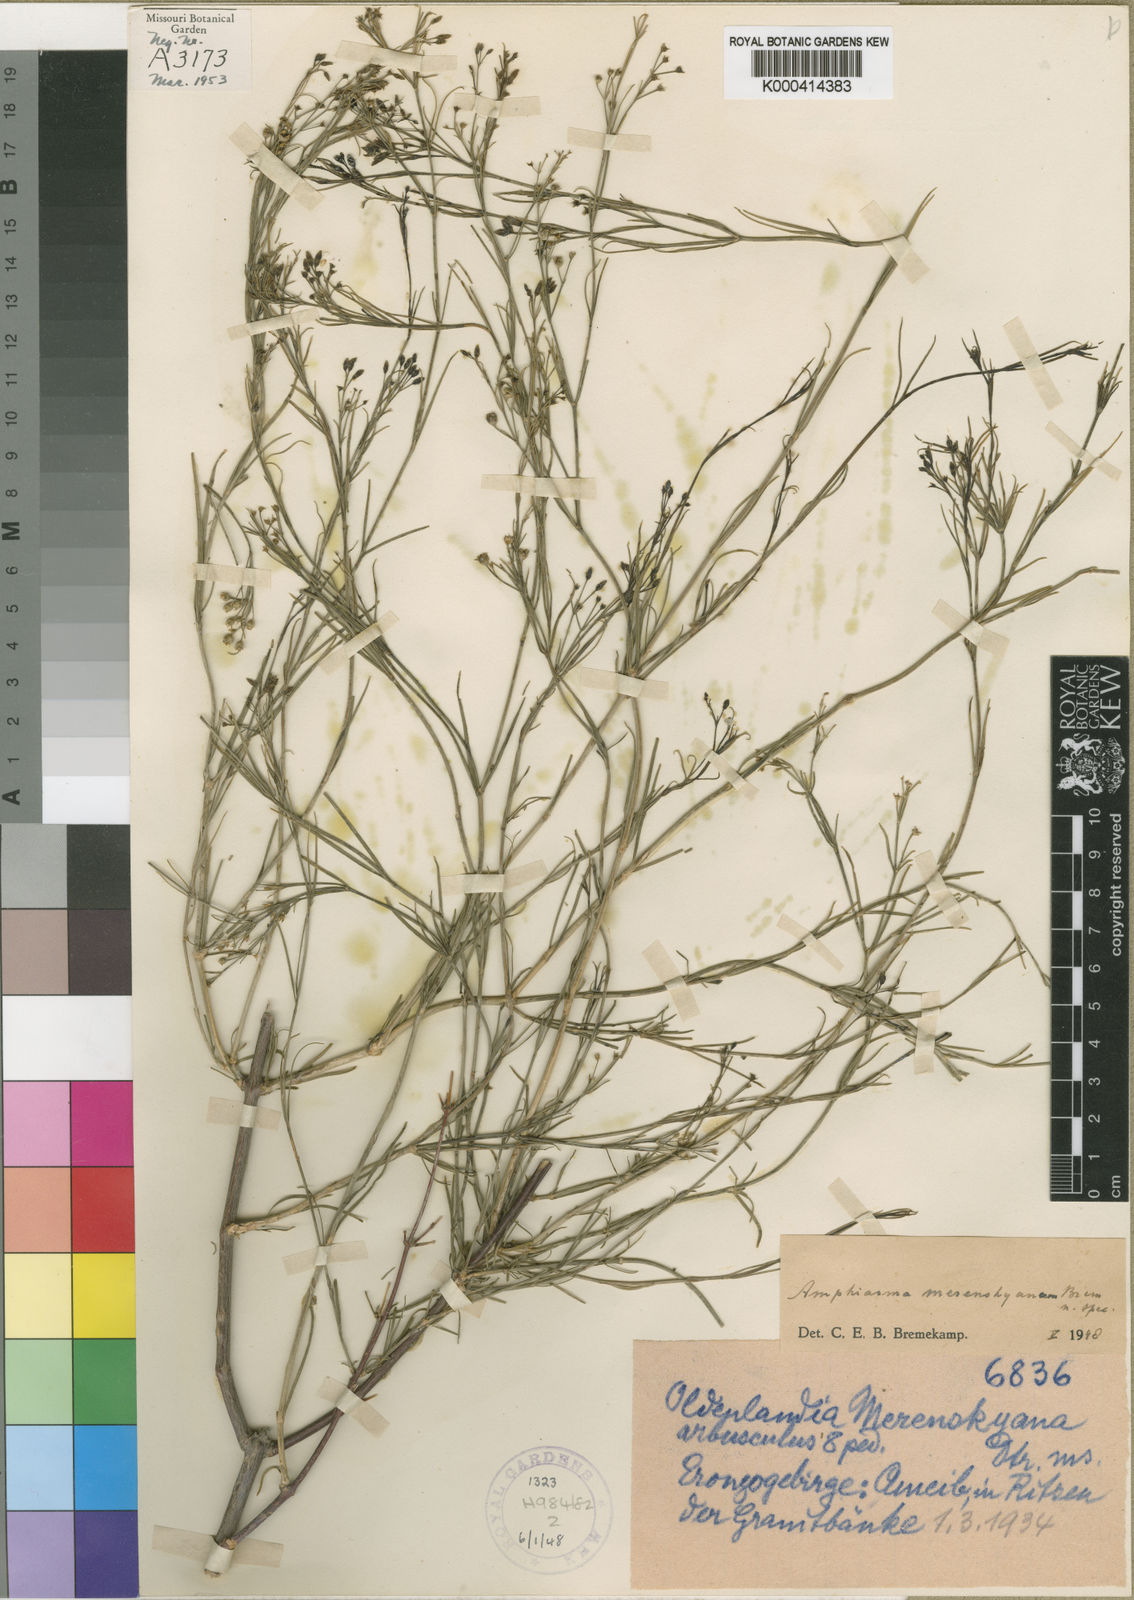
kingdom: Plantae
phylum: Tracheophyta
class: Magnoliopsida
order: Gentianales
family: Rubiaceae
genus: Amphiasma
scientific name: Amphiasma merenskyanum
